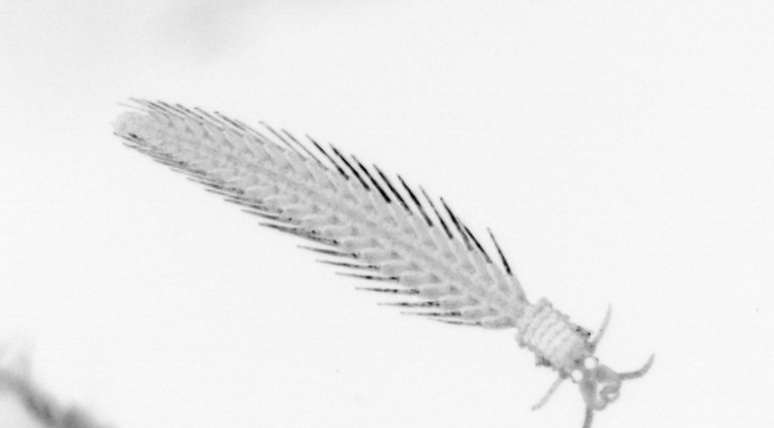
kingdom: Animalia
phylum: Annelida
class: Polychaeta
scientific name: Polychaeta
